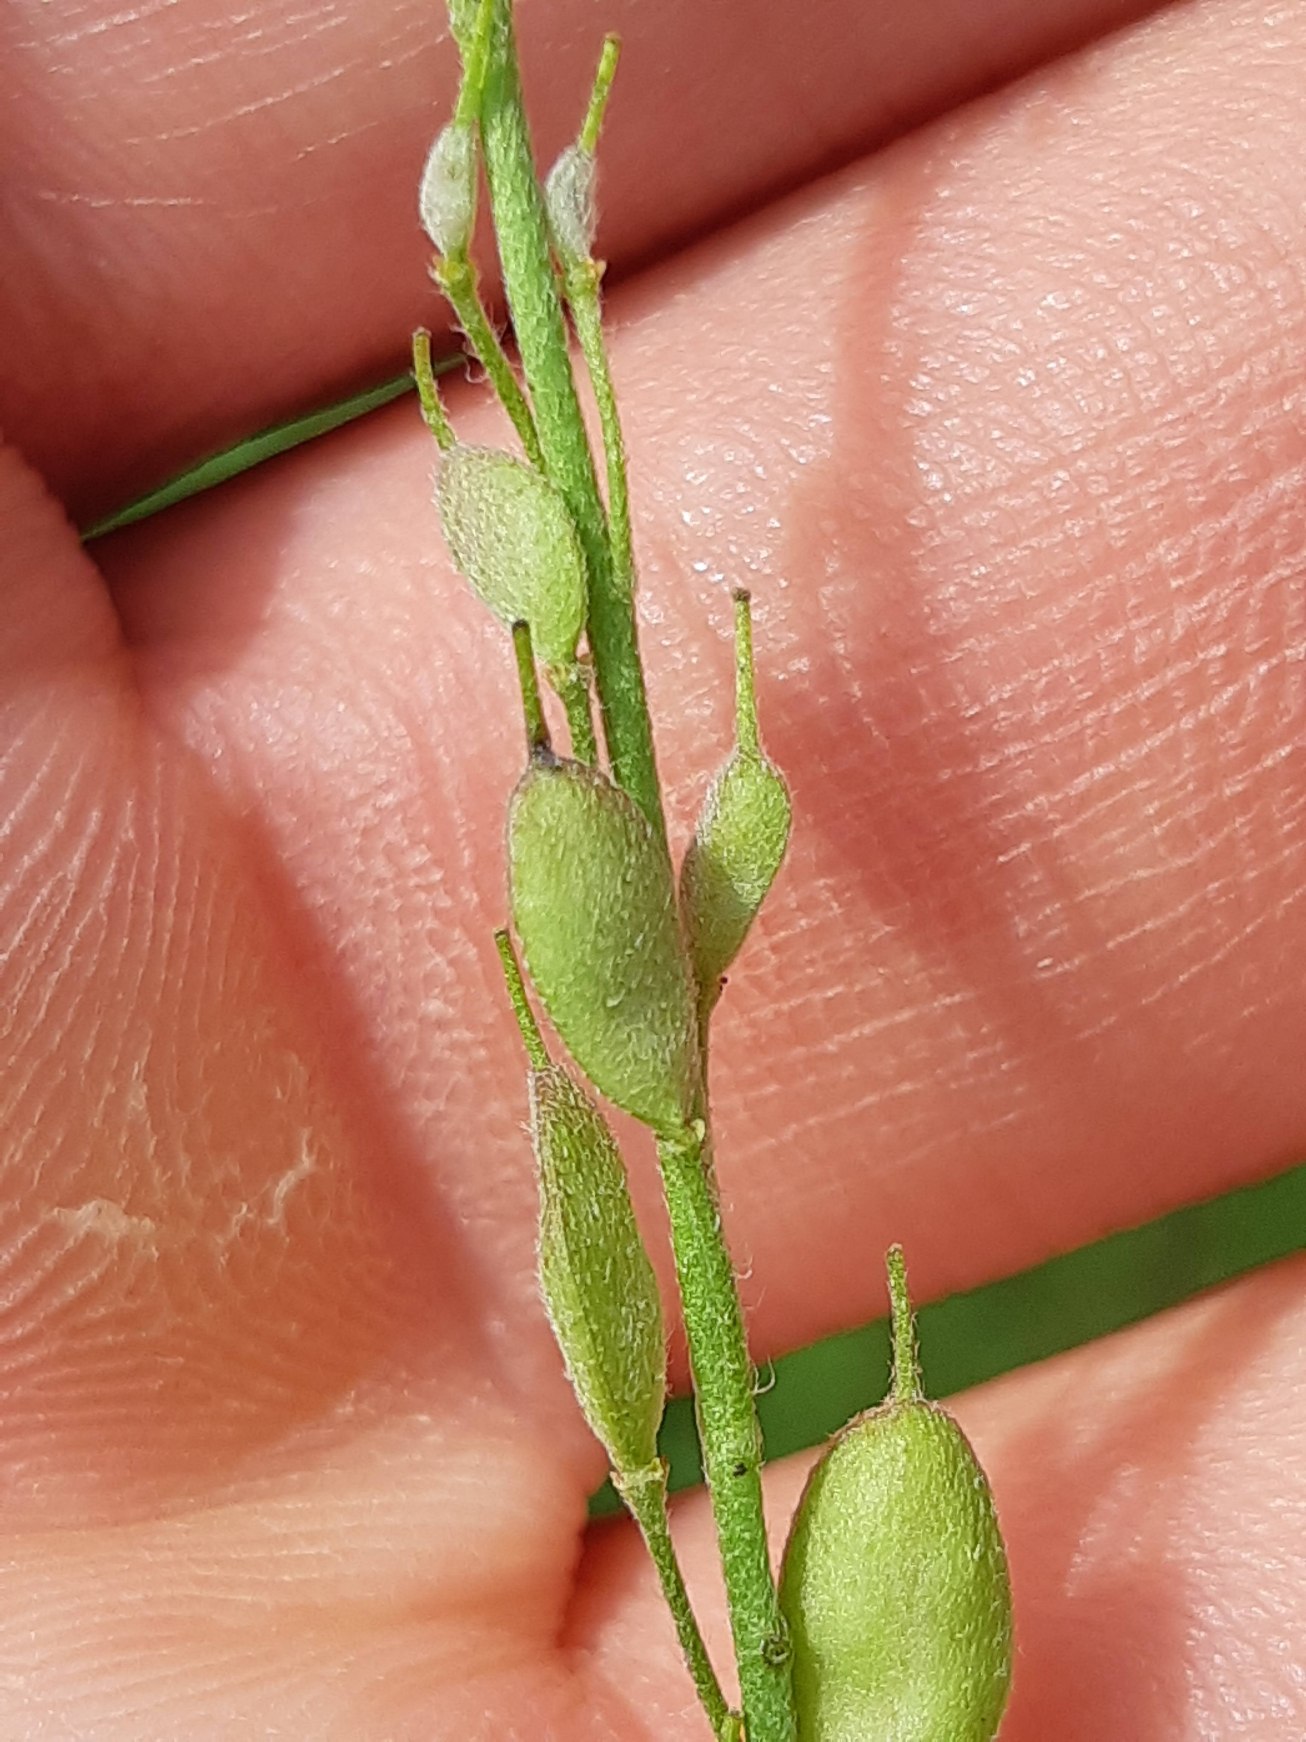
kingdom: Plantae
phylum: Tracheophyta
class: Magnoliopsida
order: Brassicales
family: Brassicaceae
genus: Berteroa
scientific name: Berteroa incana
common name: Kløvplade
